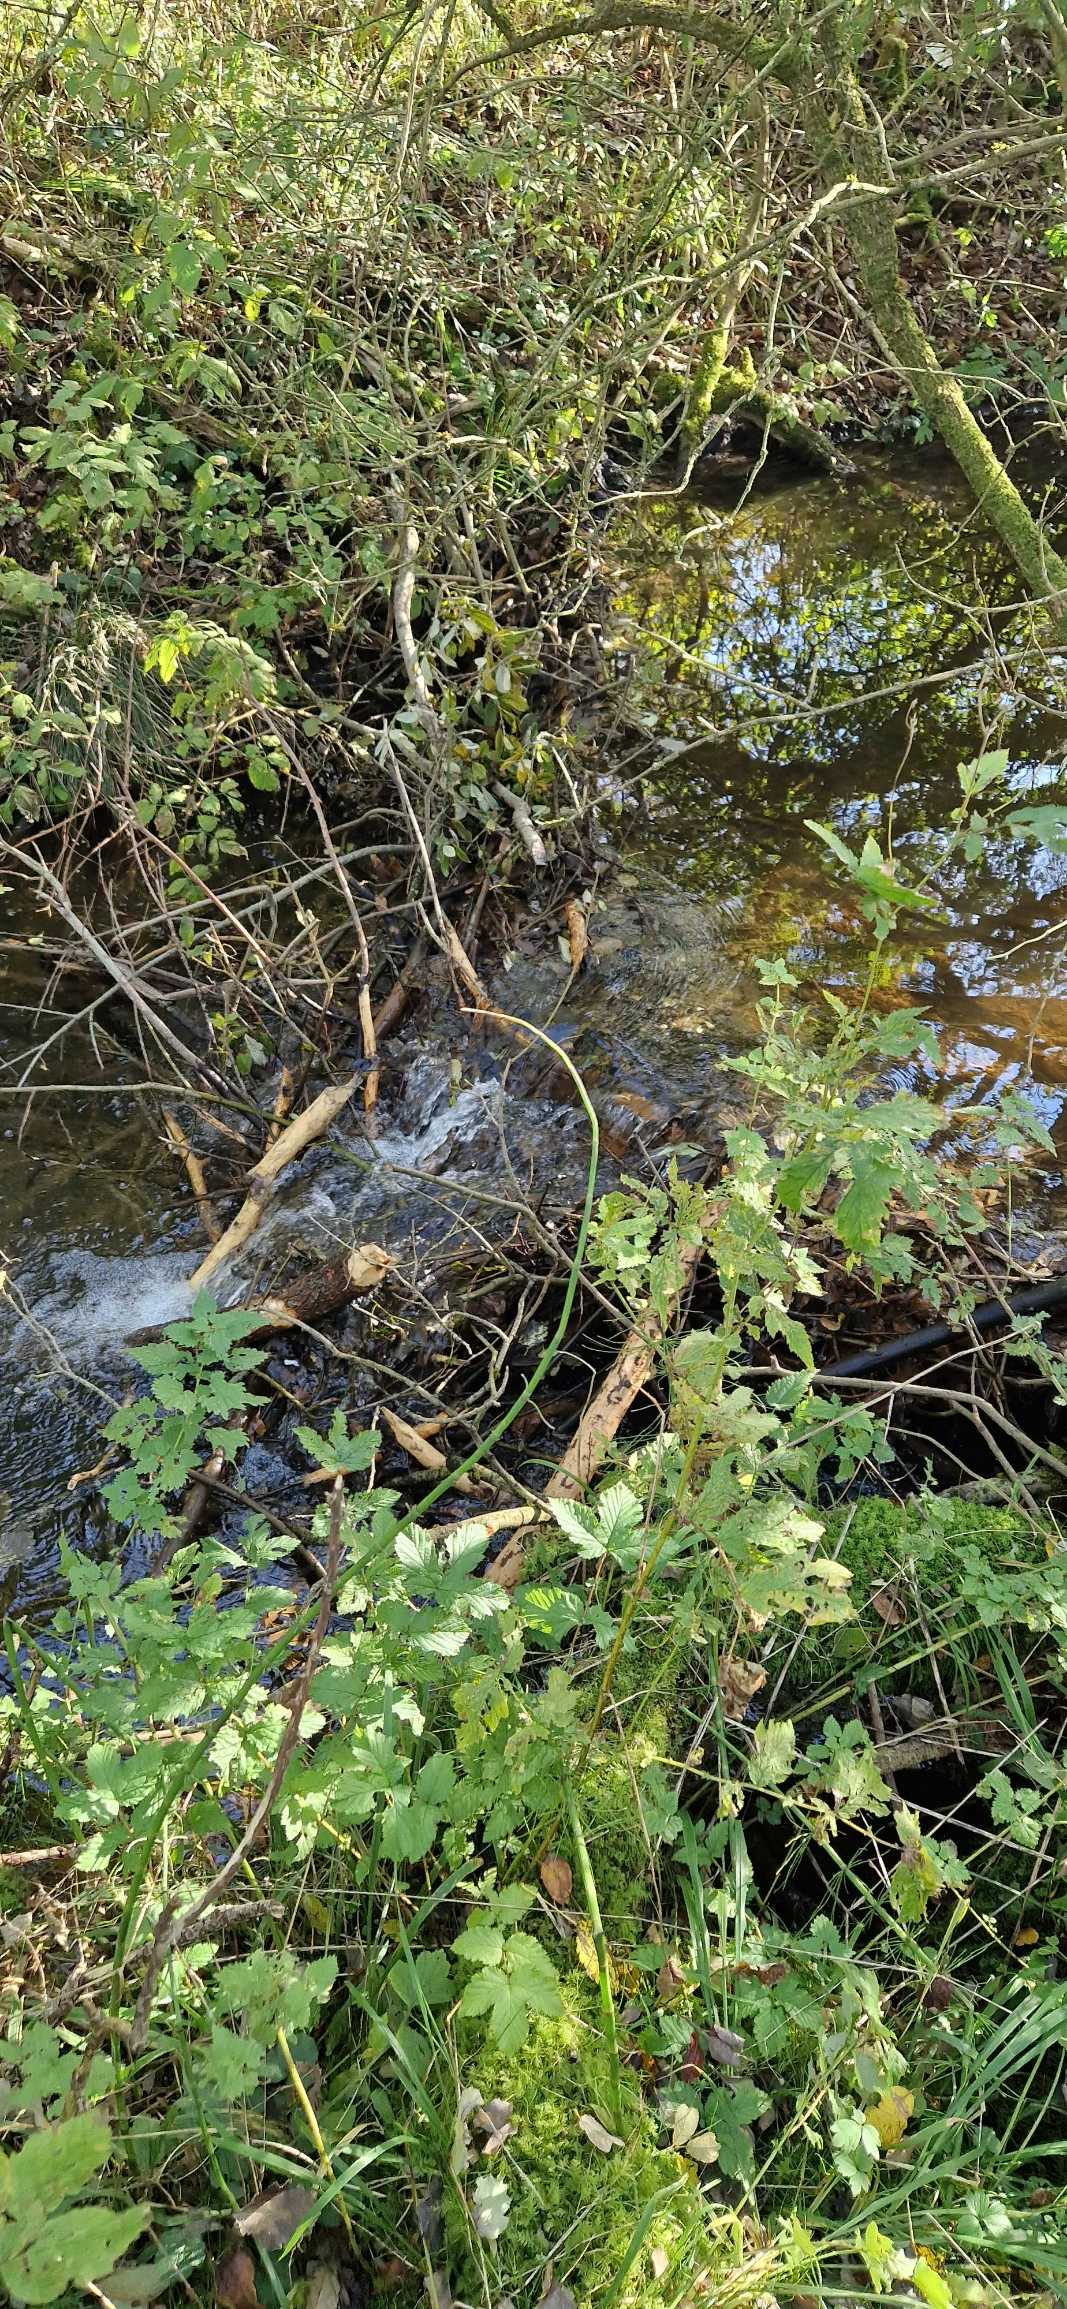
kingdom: Animalia
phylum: Chordata
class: Mammalia
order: Rodentia
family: Castoridae
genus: Castor
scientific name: Castor fiber
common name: Bæver
